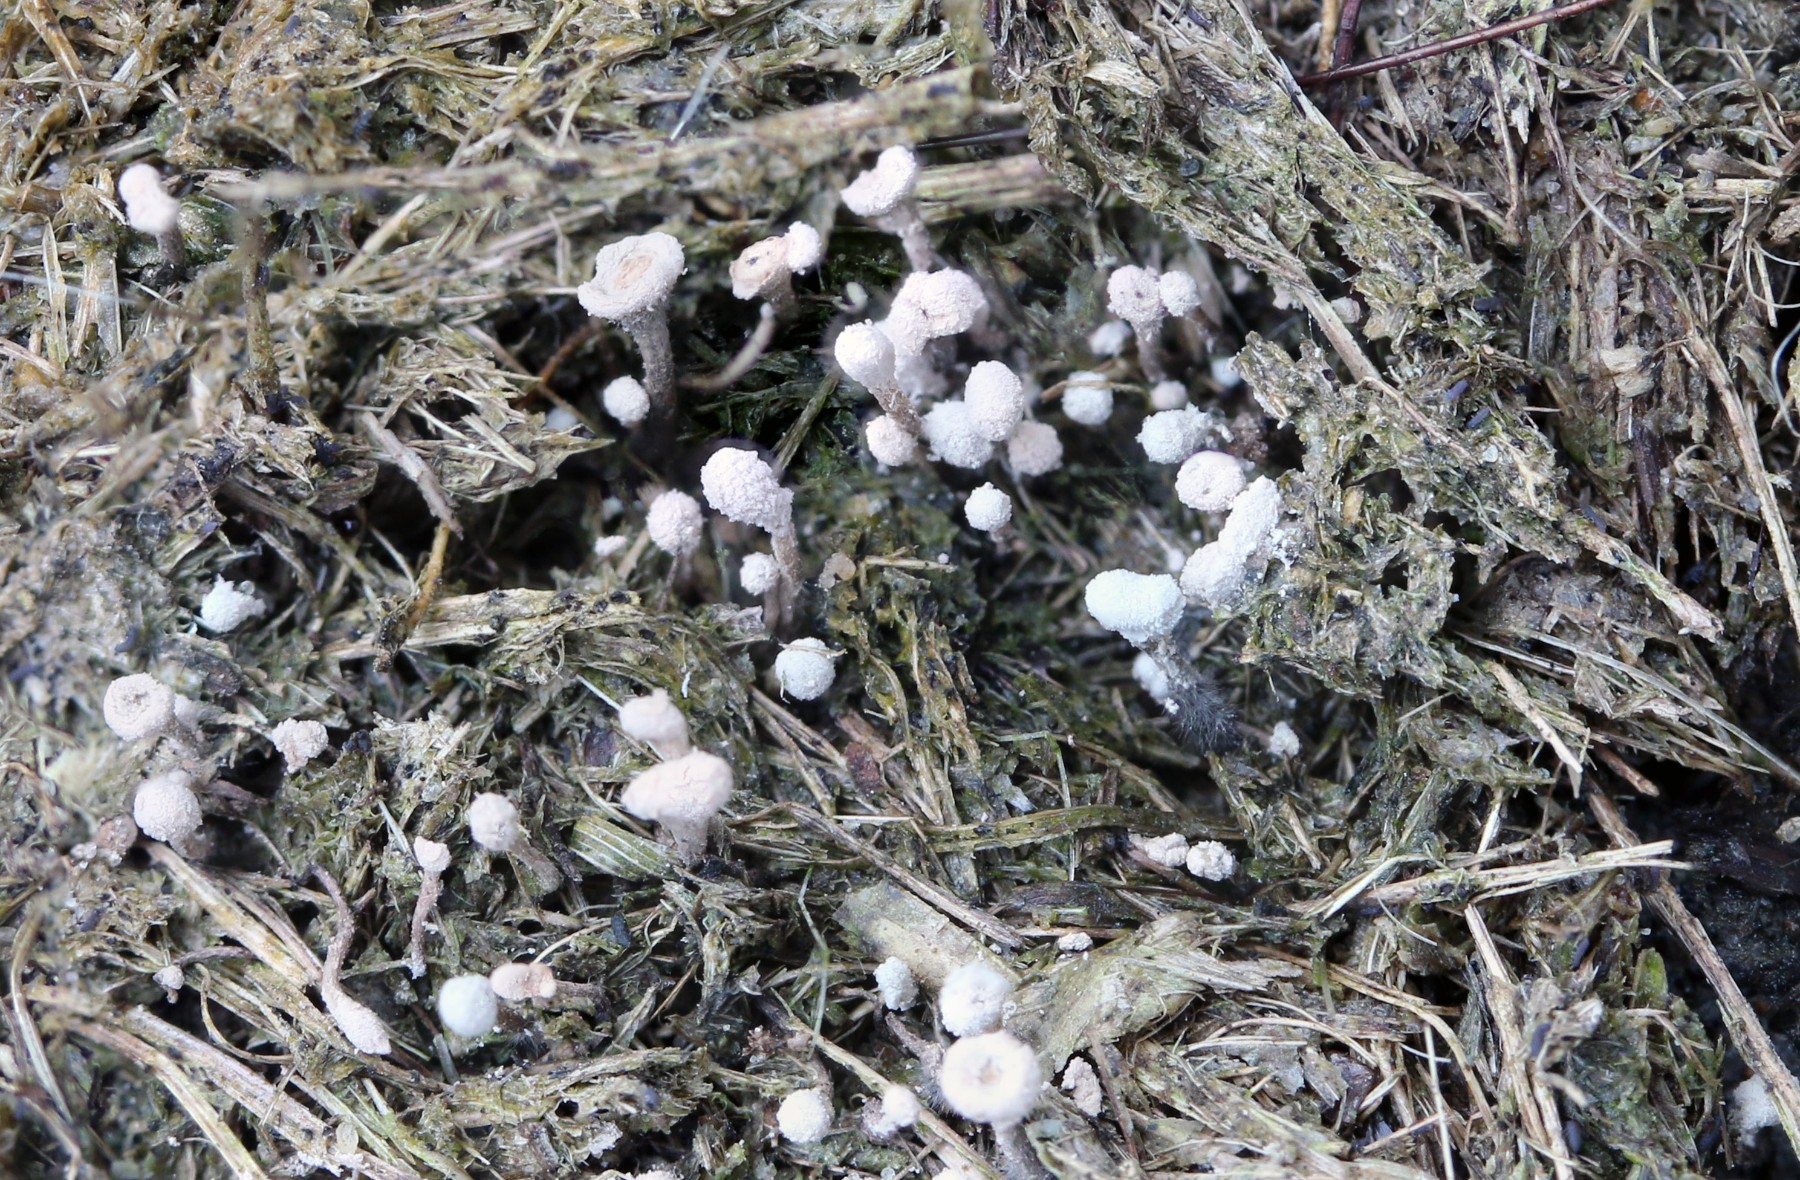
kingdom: Fungi
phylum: Ascomycota
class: Sordariomycetes
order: Xylariales
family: Xylariaceae
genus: Poronia
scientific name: Poronia punctata
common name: stor priksvamp
